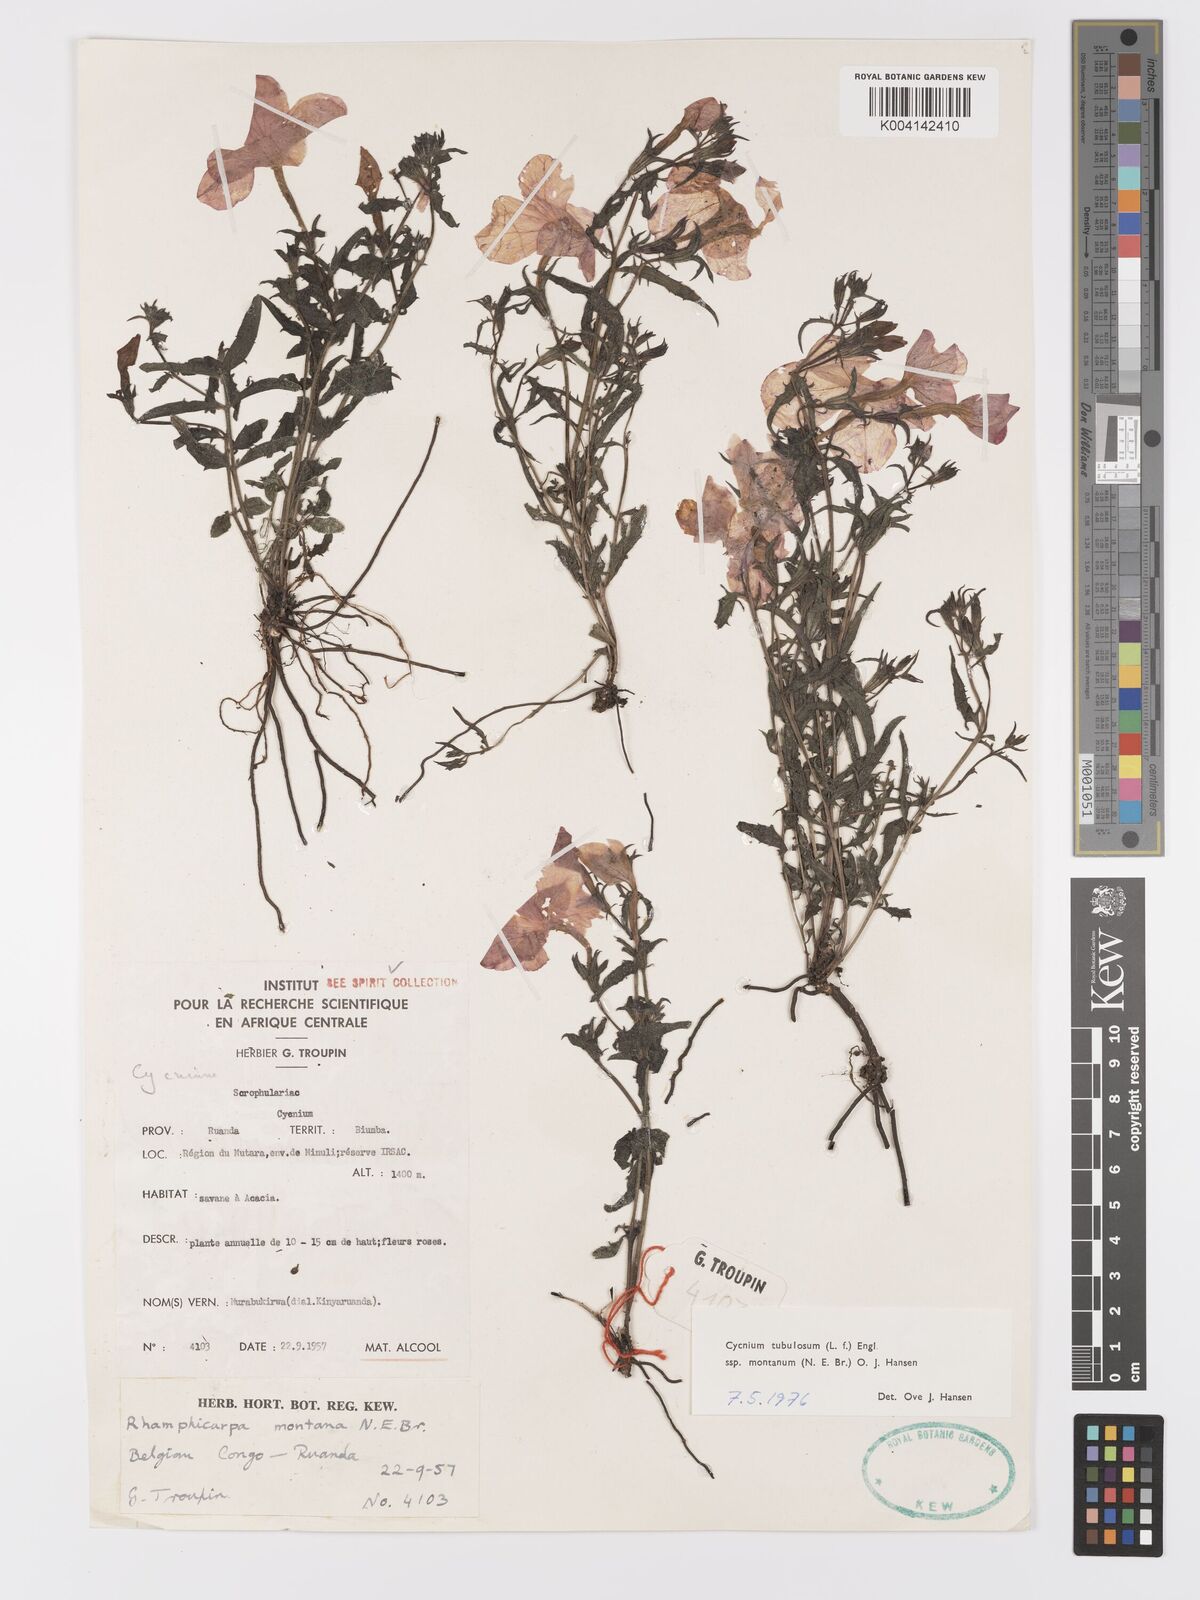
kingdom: Plantae
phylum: Tracheophyta
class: Magnoliopsida
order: Lamiales
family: Orobanchaceae
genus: Cycnium
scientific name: Cycnium tubulosum
